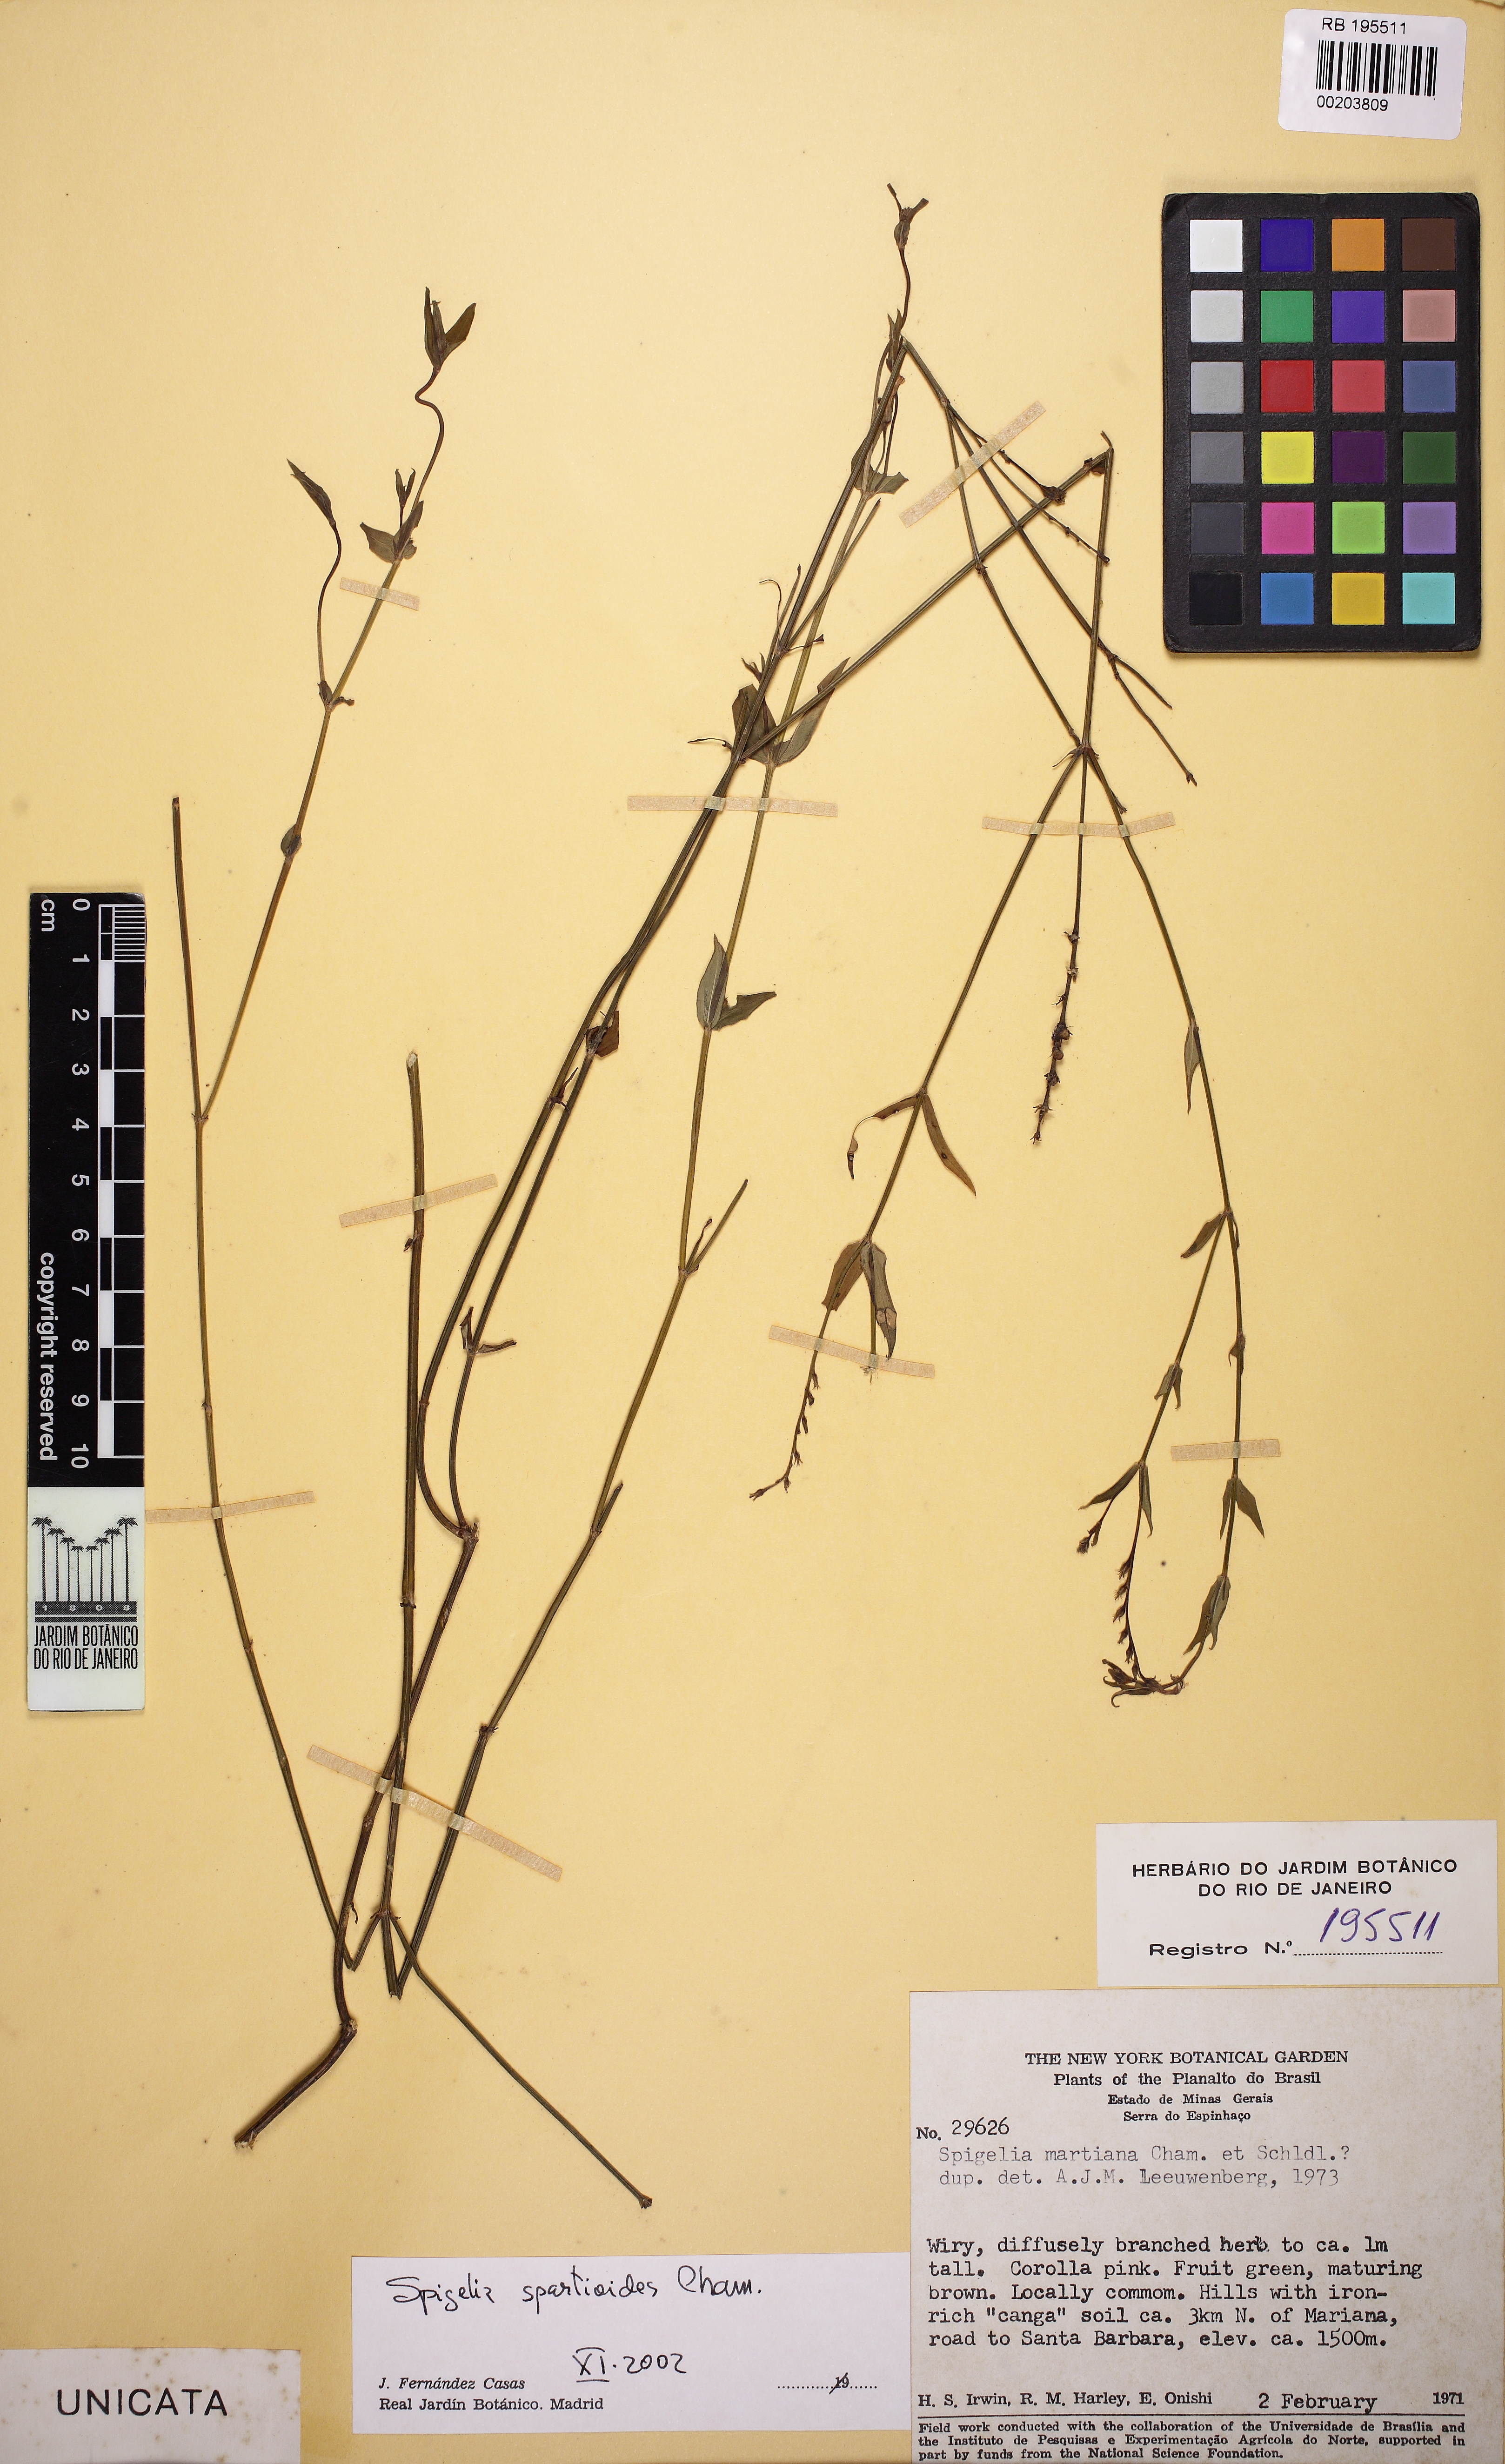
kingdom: Plantae
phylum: Tracheophyta
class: Magnoliopsida
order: Gentianales
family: Loganiaceae
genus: Spigelia
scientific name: Spigelia spartioides
